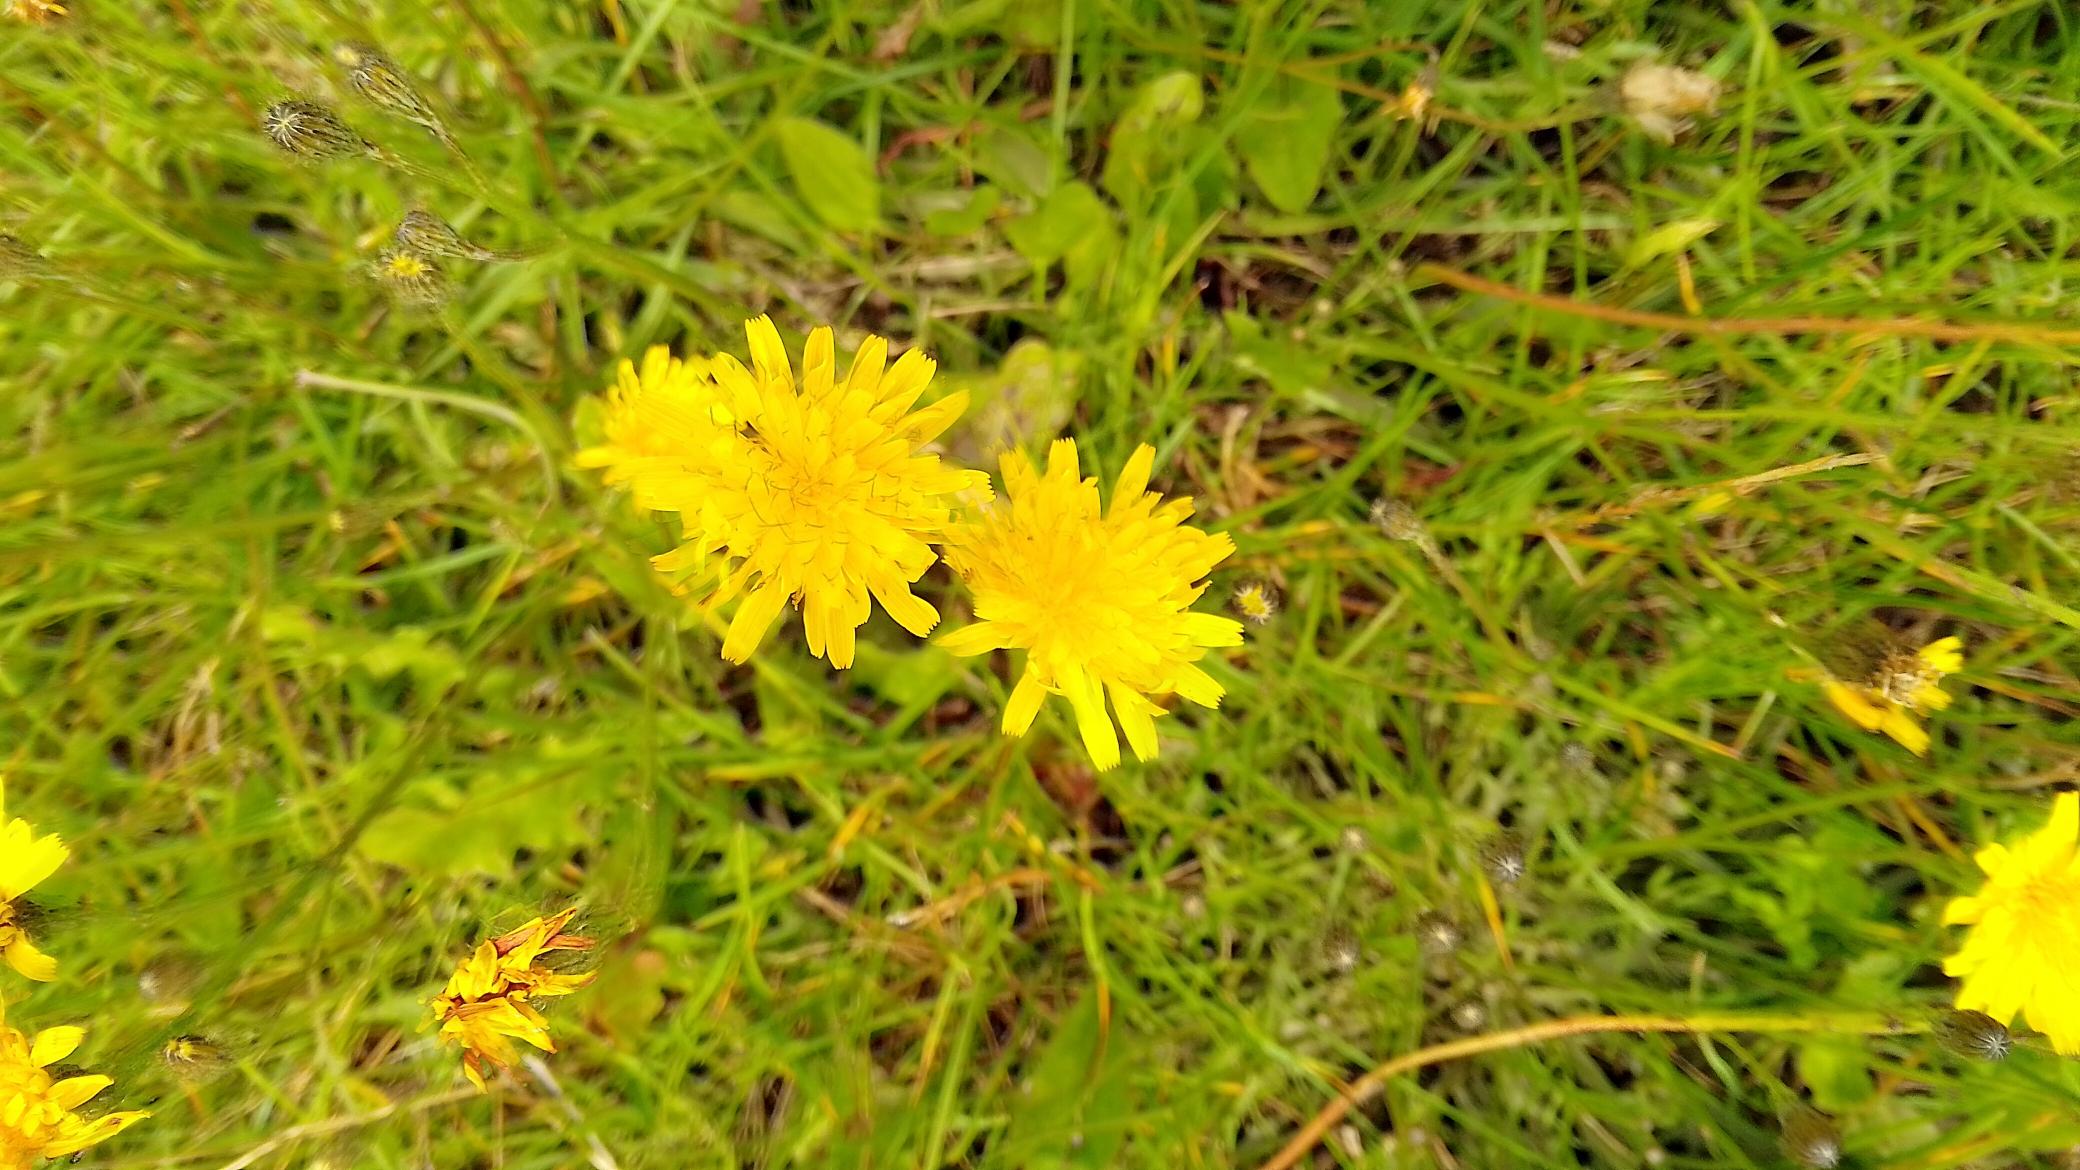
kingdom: Plantae
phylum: Tracheophyta
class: Magnoliopsida
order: Asterales
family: Asteraceae
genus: Scorzoneroides
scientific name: Scorzoneroides autumnalis
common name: Høst-borst
